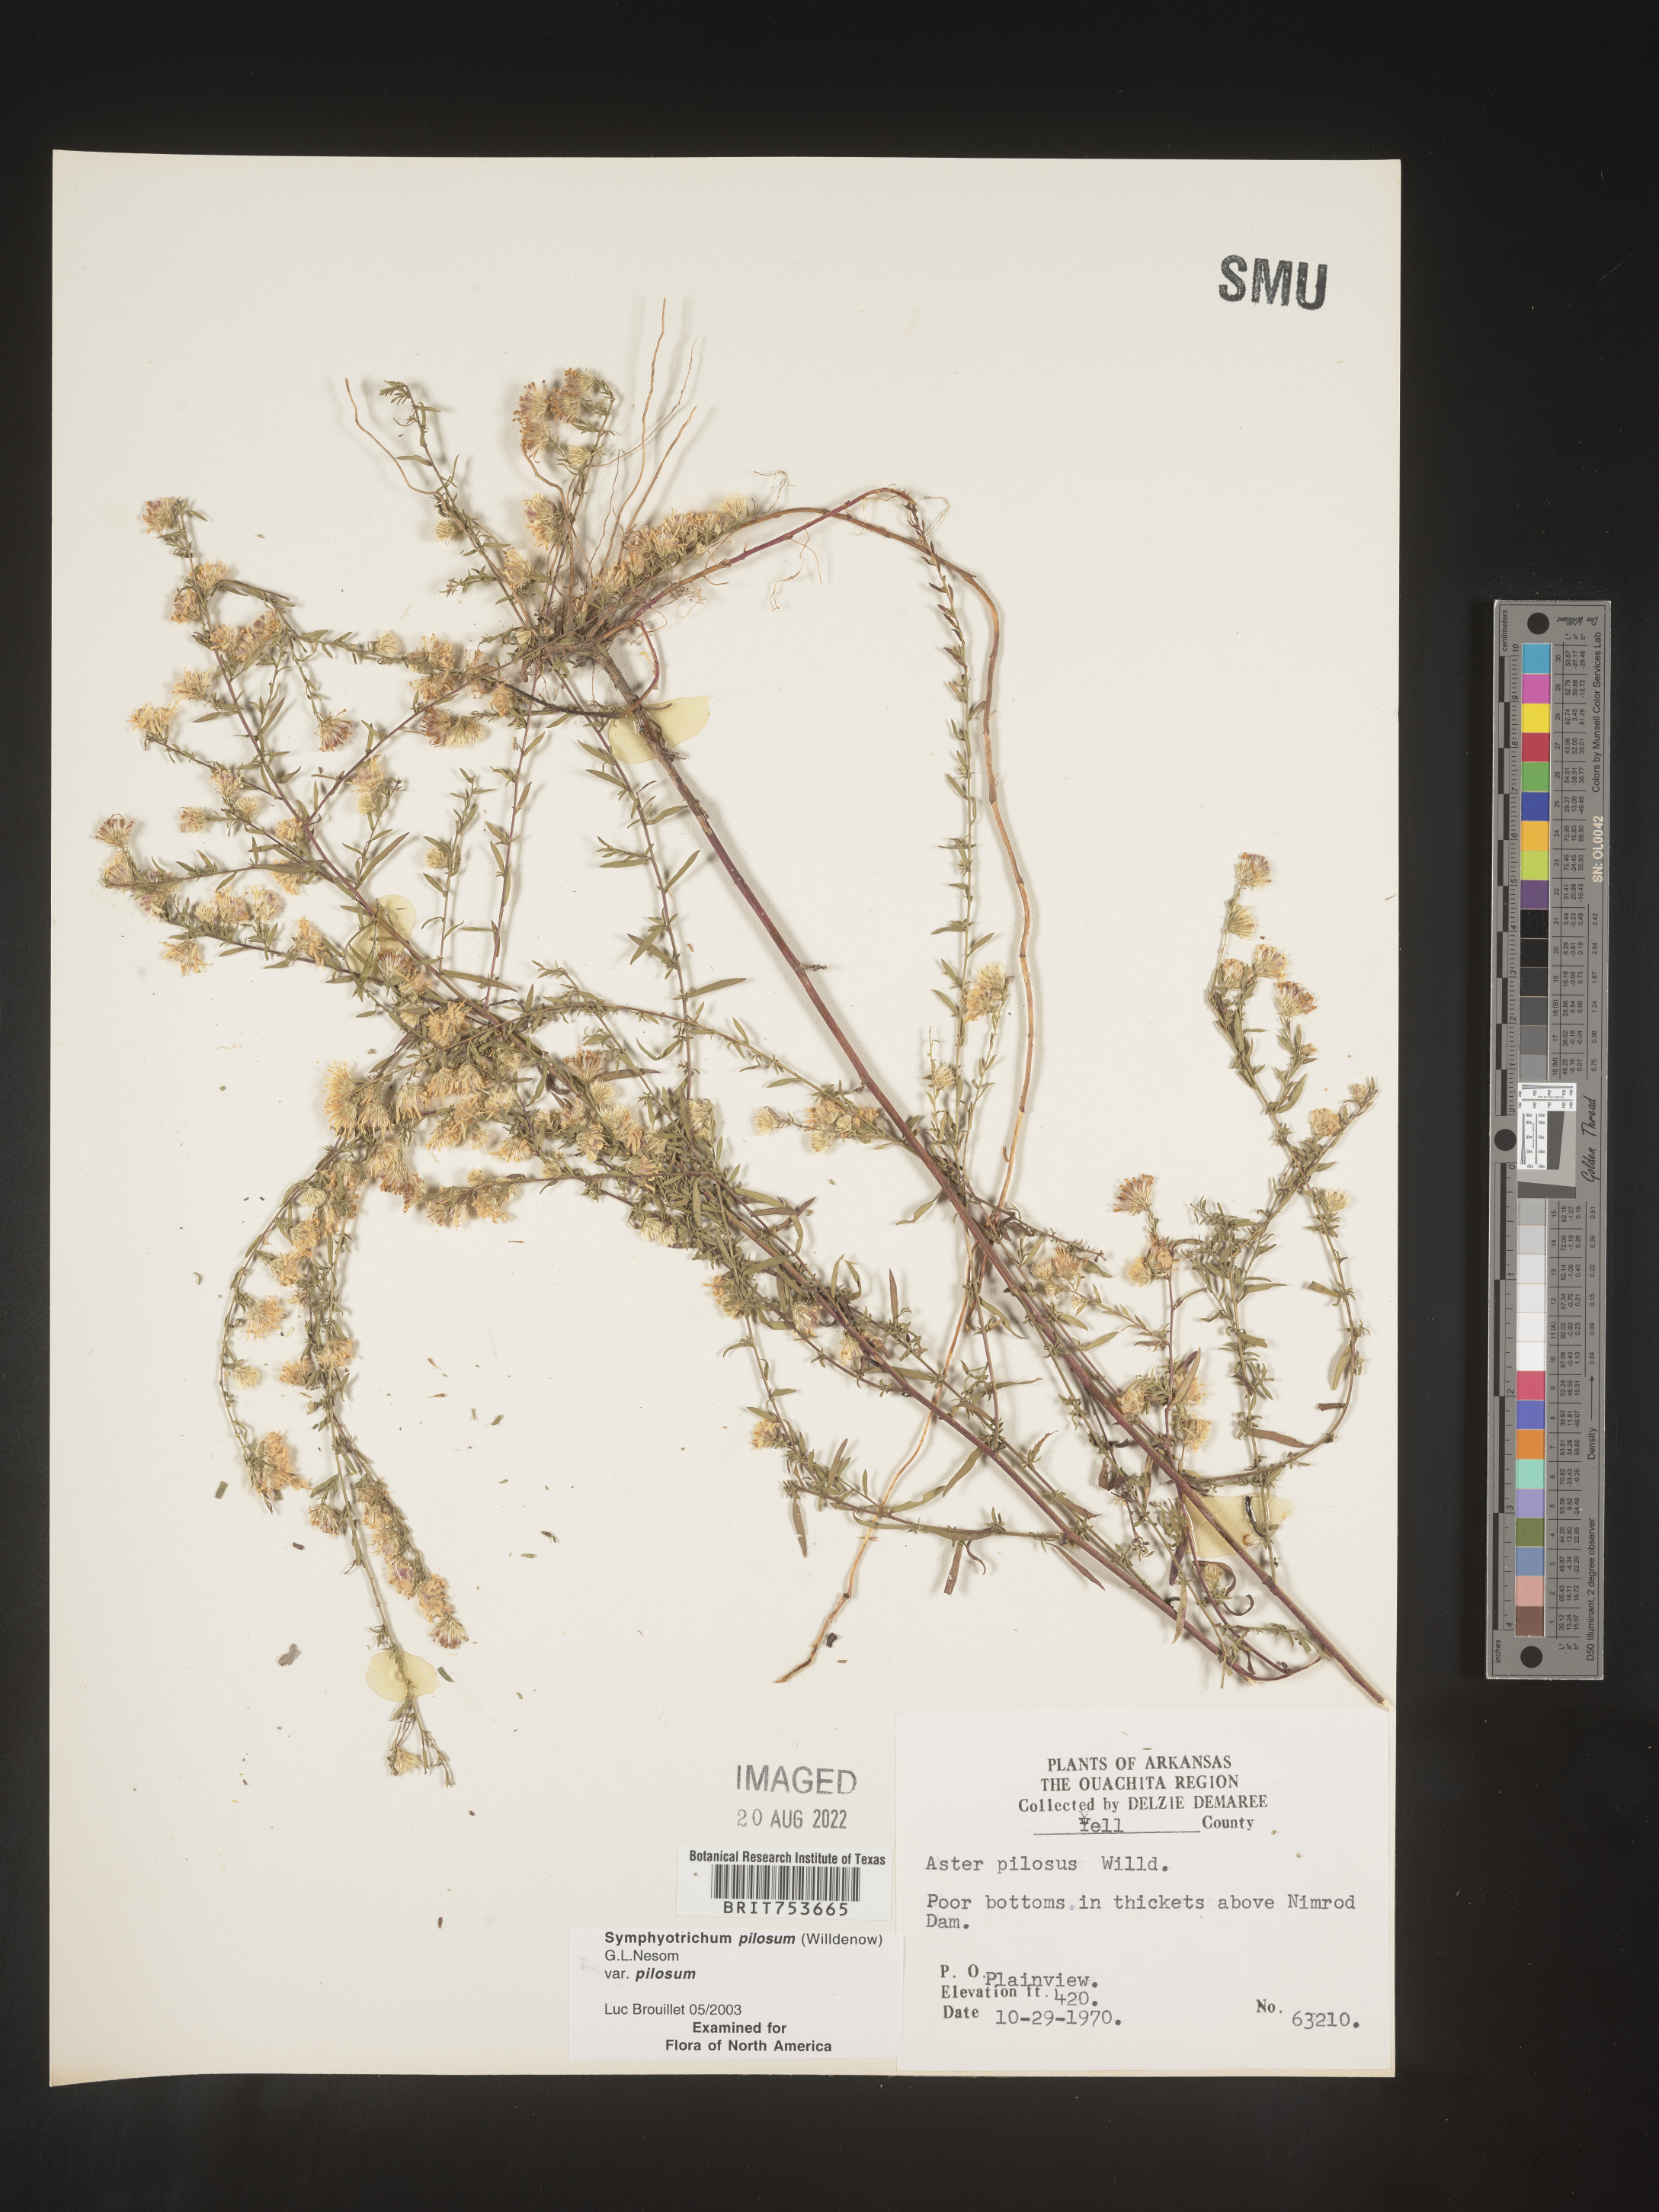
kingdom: Plantae
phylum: Tracheophyta
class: Magnoliopsida
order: Asterales
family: Asteraceae
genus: Symphyotrichum
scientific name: Symphyotrichum pilosum
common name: Awl aster
